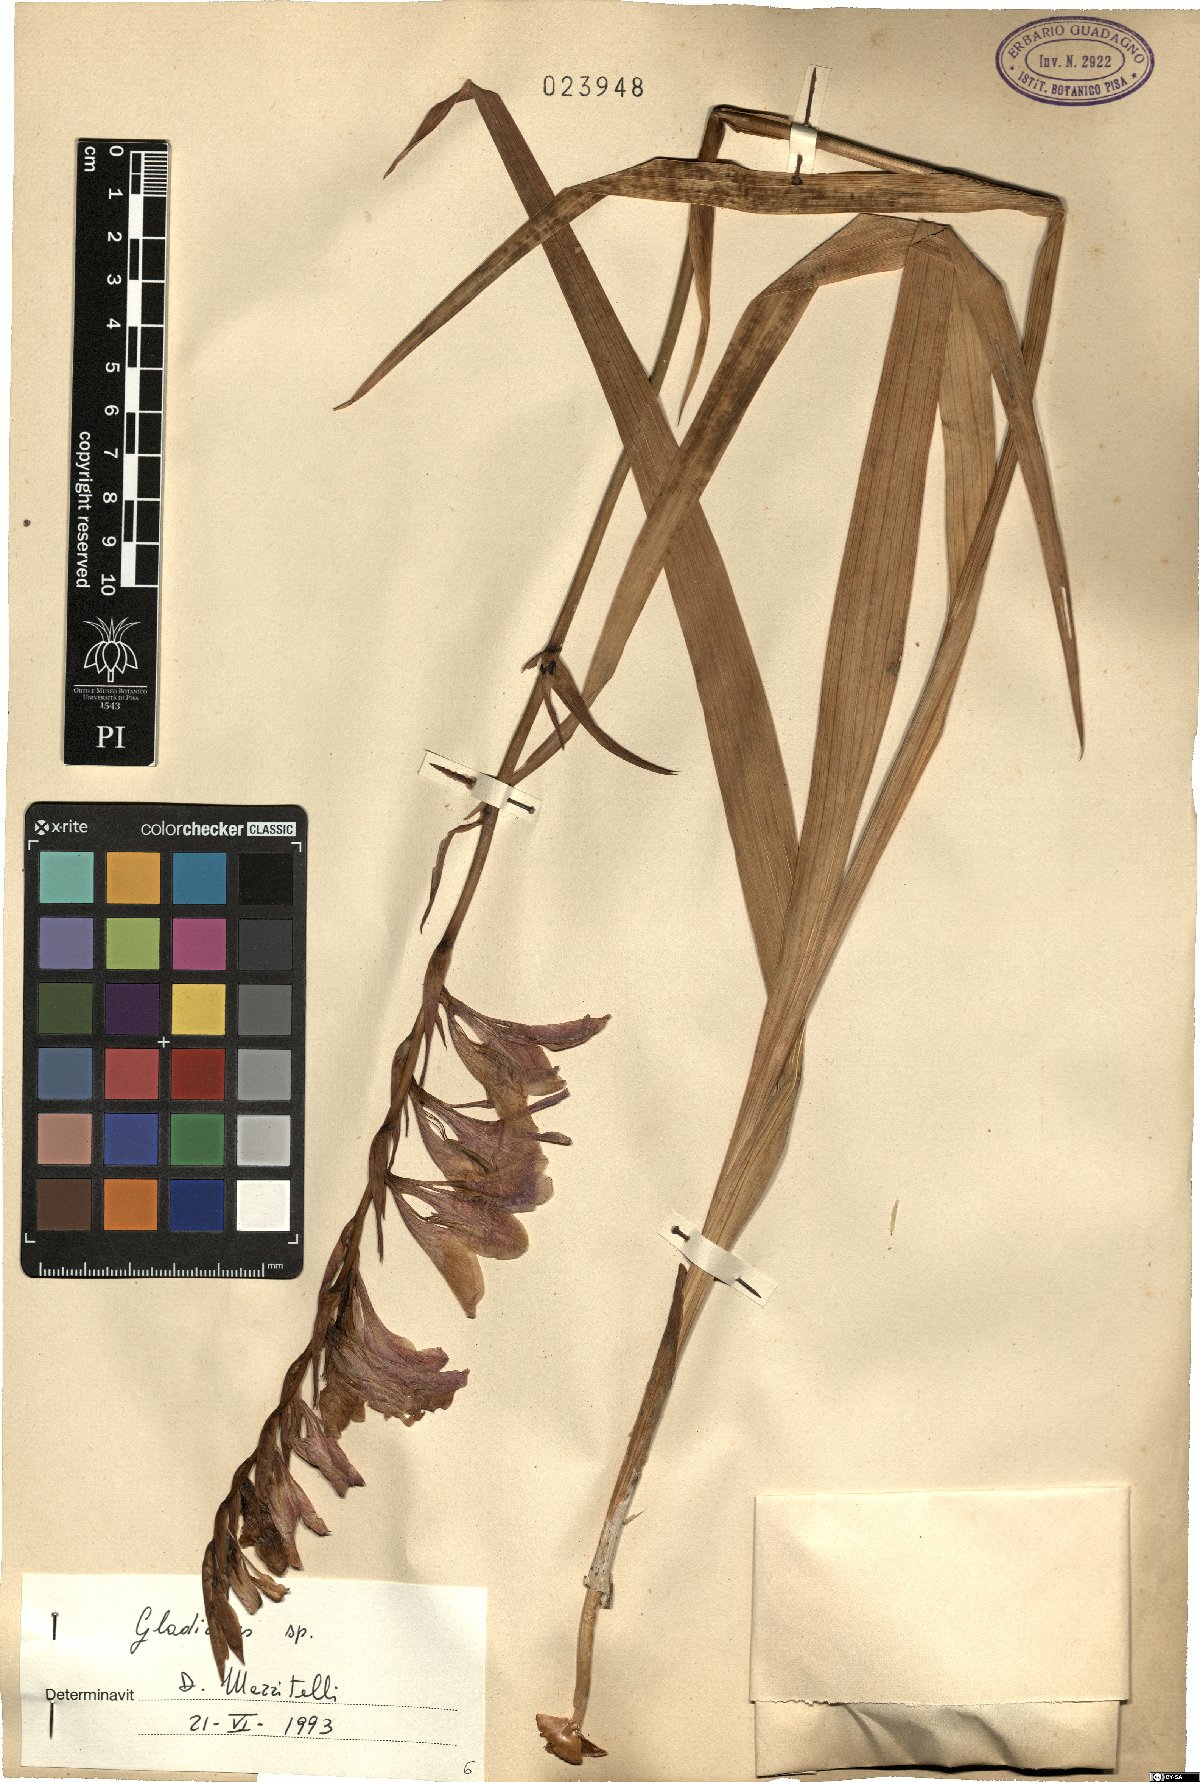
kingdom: Plantae
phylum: Tracheophyta
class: Liliopsida
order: Asparagales
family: Iridaceae
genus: Gladiolus
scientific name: Gladiolus
